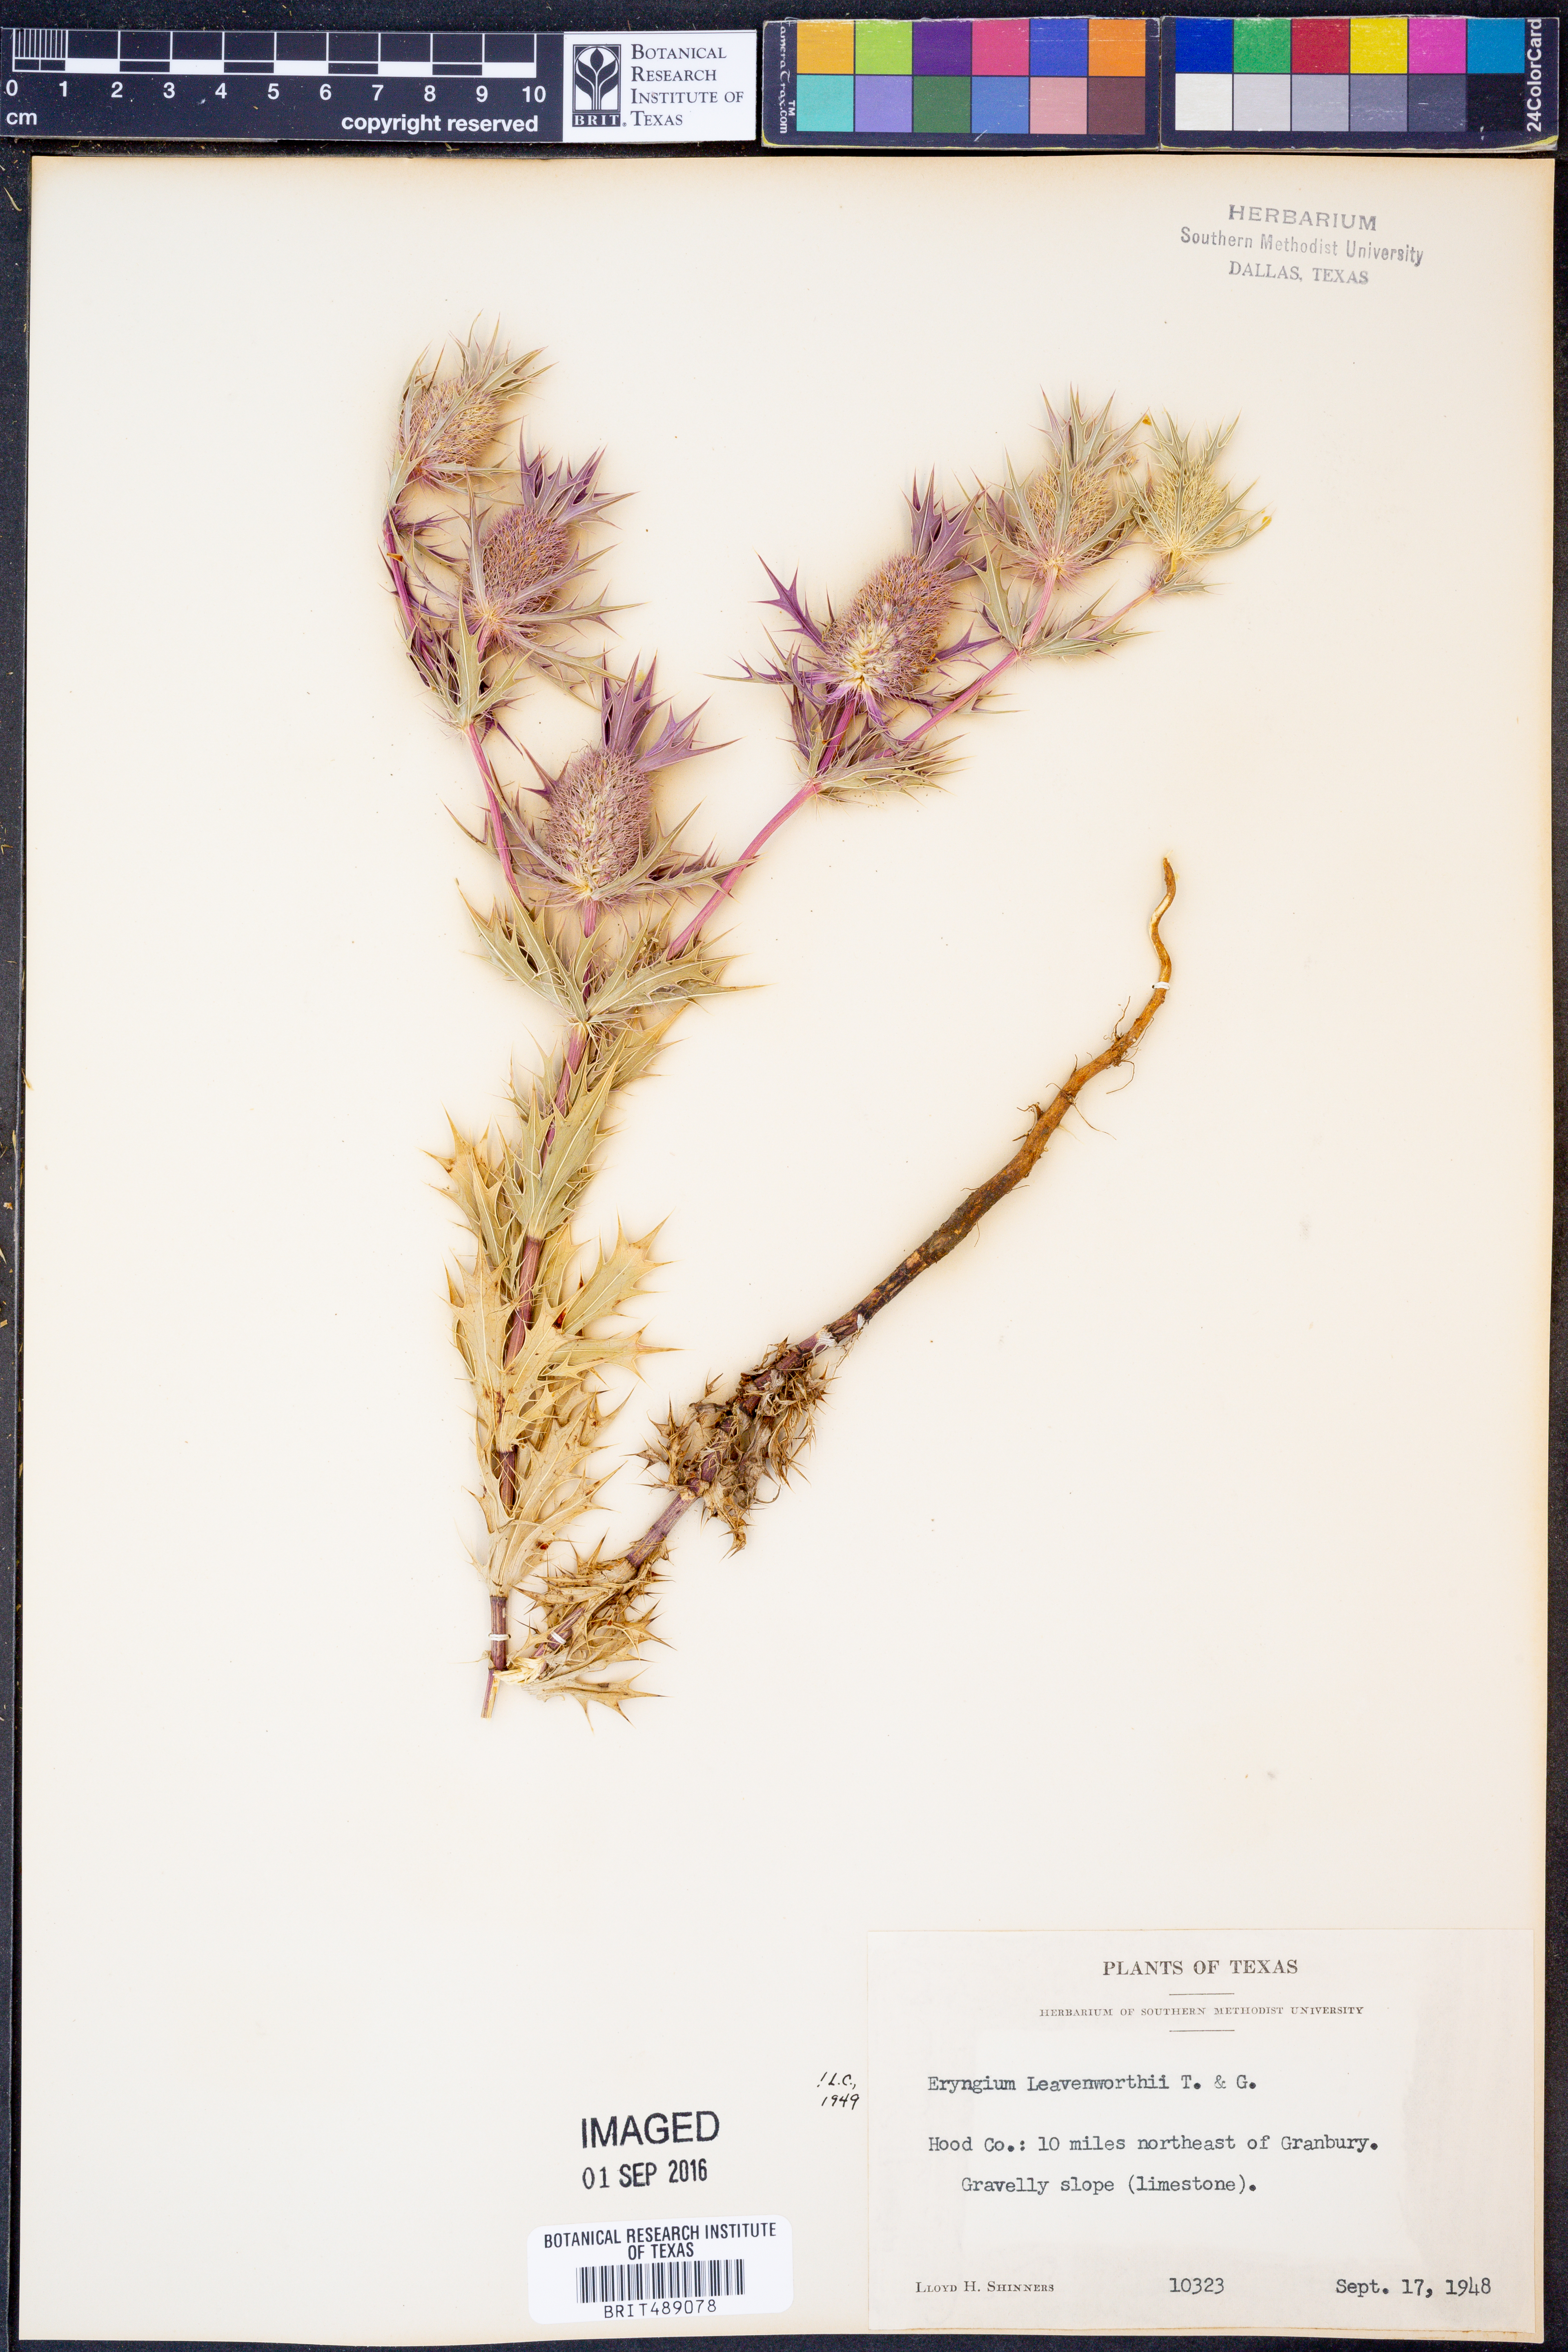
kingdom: Plantae
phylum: Tracheophyta
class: Magnoliopsida
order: Apiales
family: Apiaceae
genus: Eryngium
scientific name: Eryngium leavenworthii
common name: Leavenworth's eryngo
